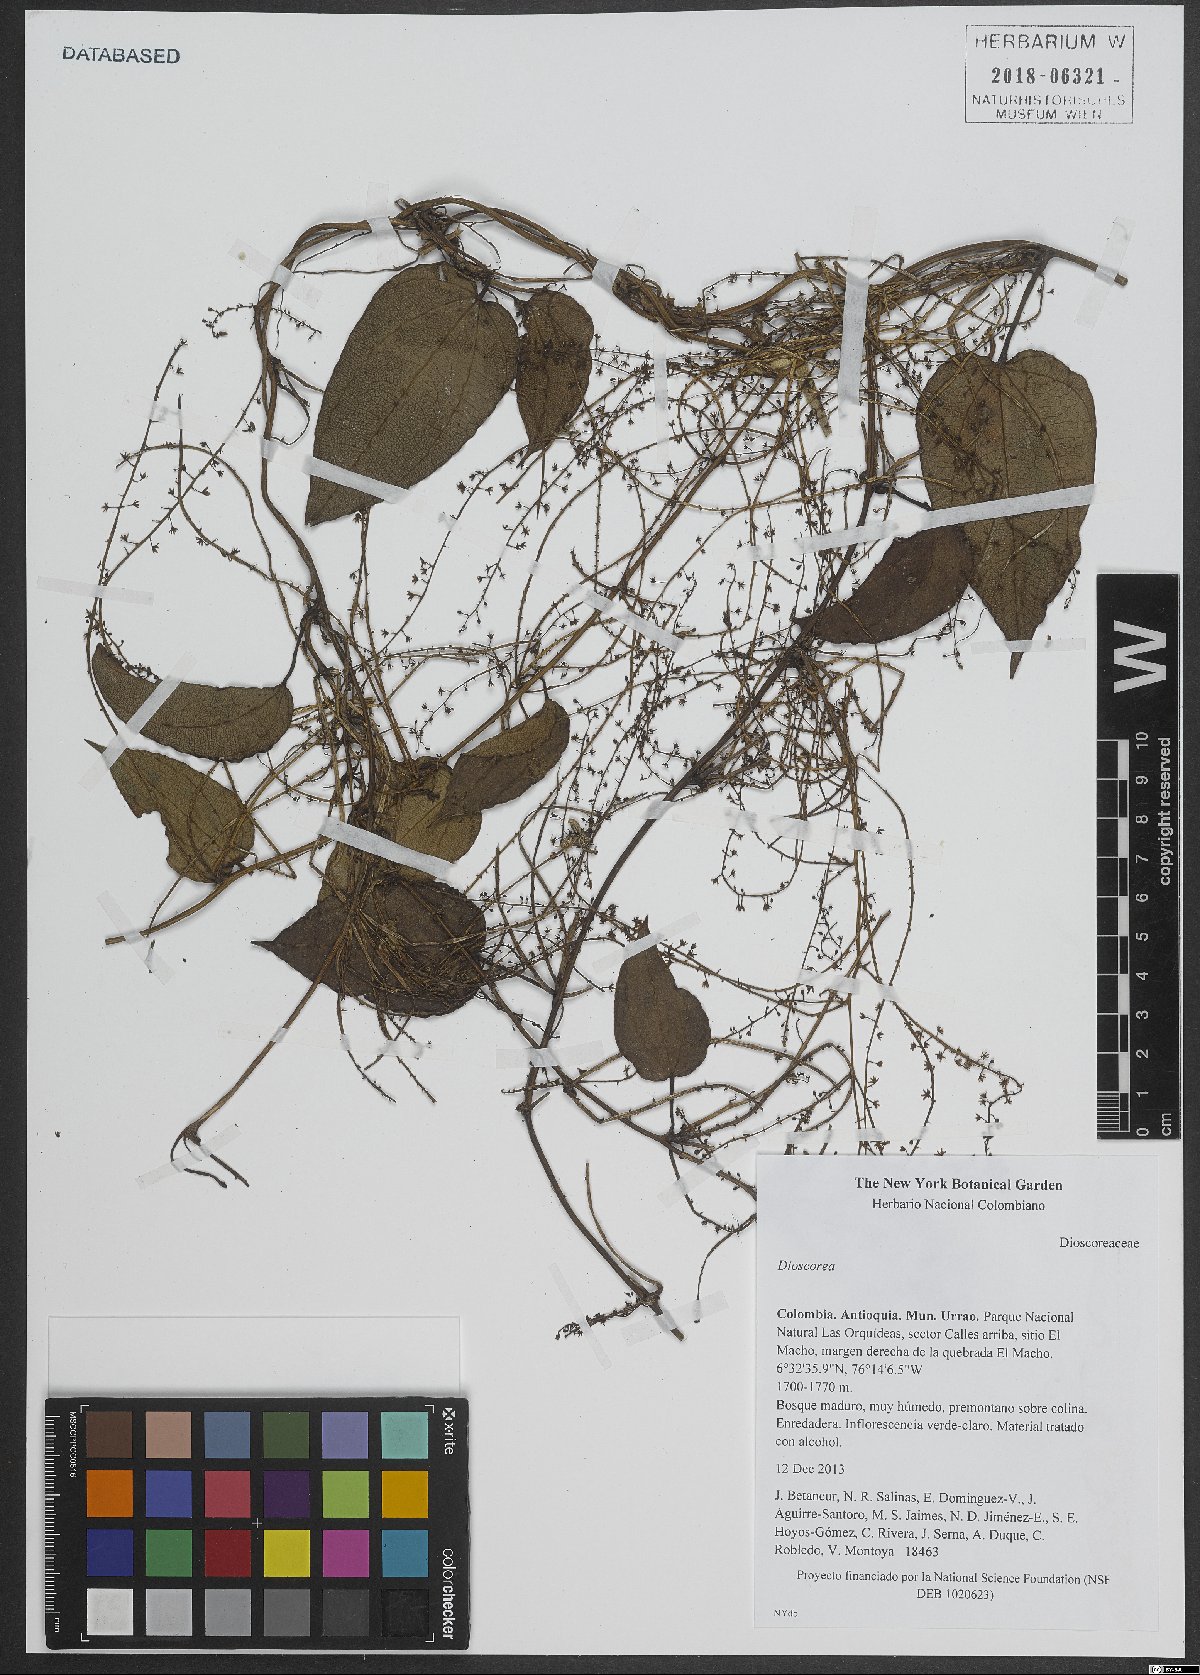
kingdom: Plantae
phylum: Tracheophyta
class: Liliopsida
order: Dioscoreales
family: Dioscoreaceae
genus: Dioscorea
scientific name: Dioscorea
